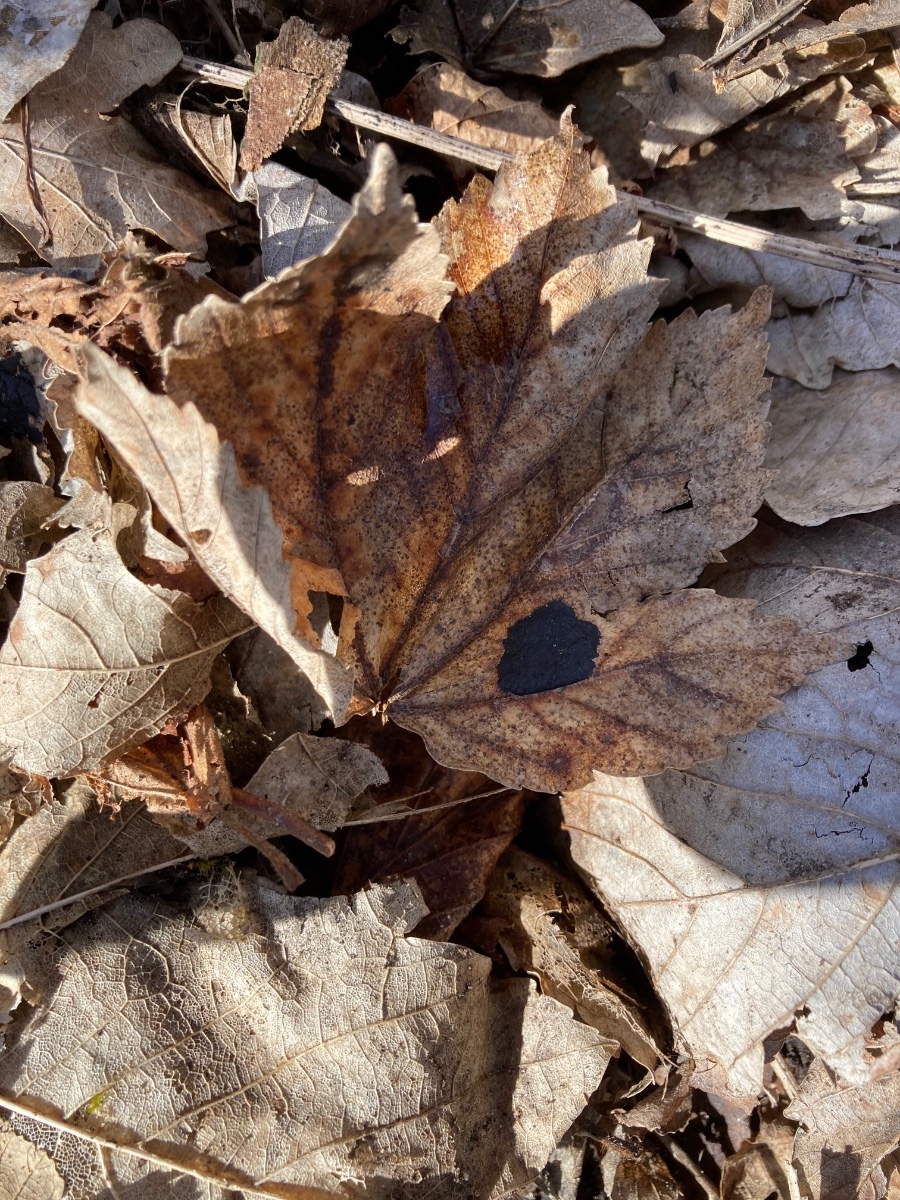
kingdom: Fungi
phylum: Ascomycota
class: Leotiomycetes
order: Rhytismatales
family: Rhytismataceae
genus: Rhytisma
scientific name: Rhytisma acerinum
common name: ahorn-rynkeplet
